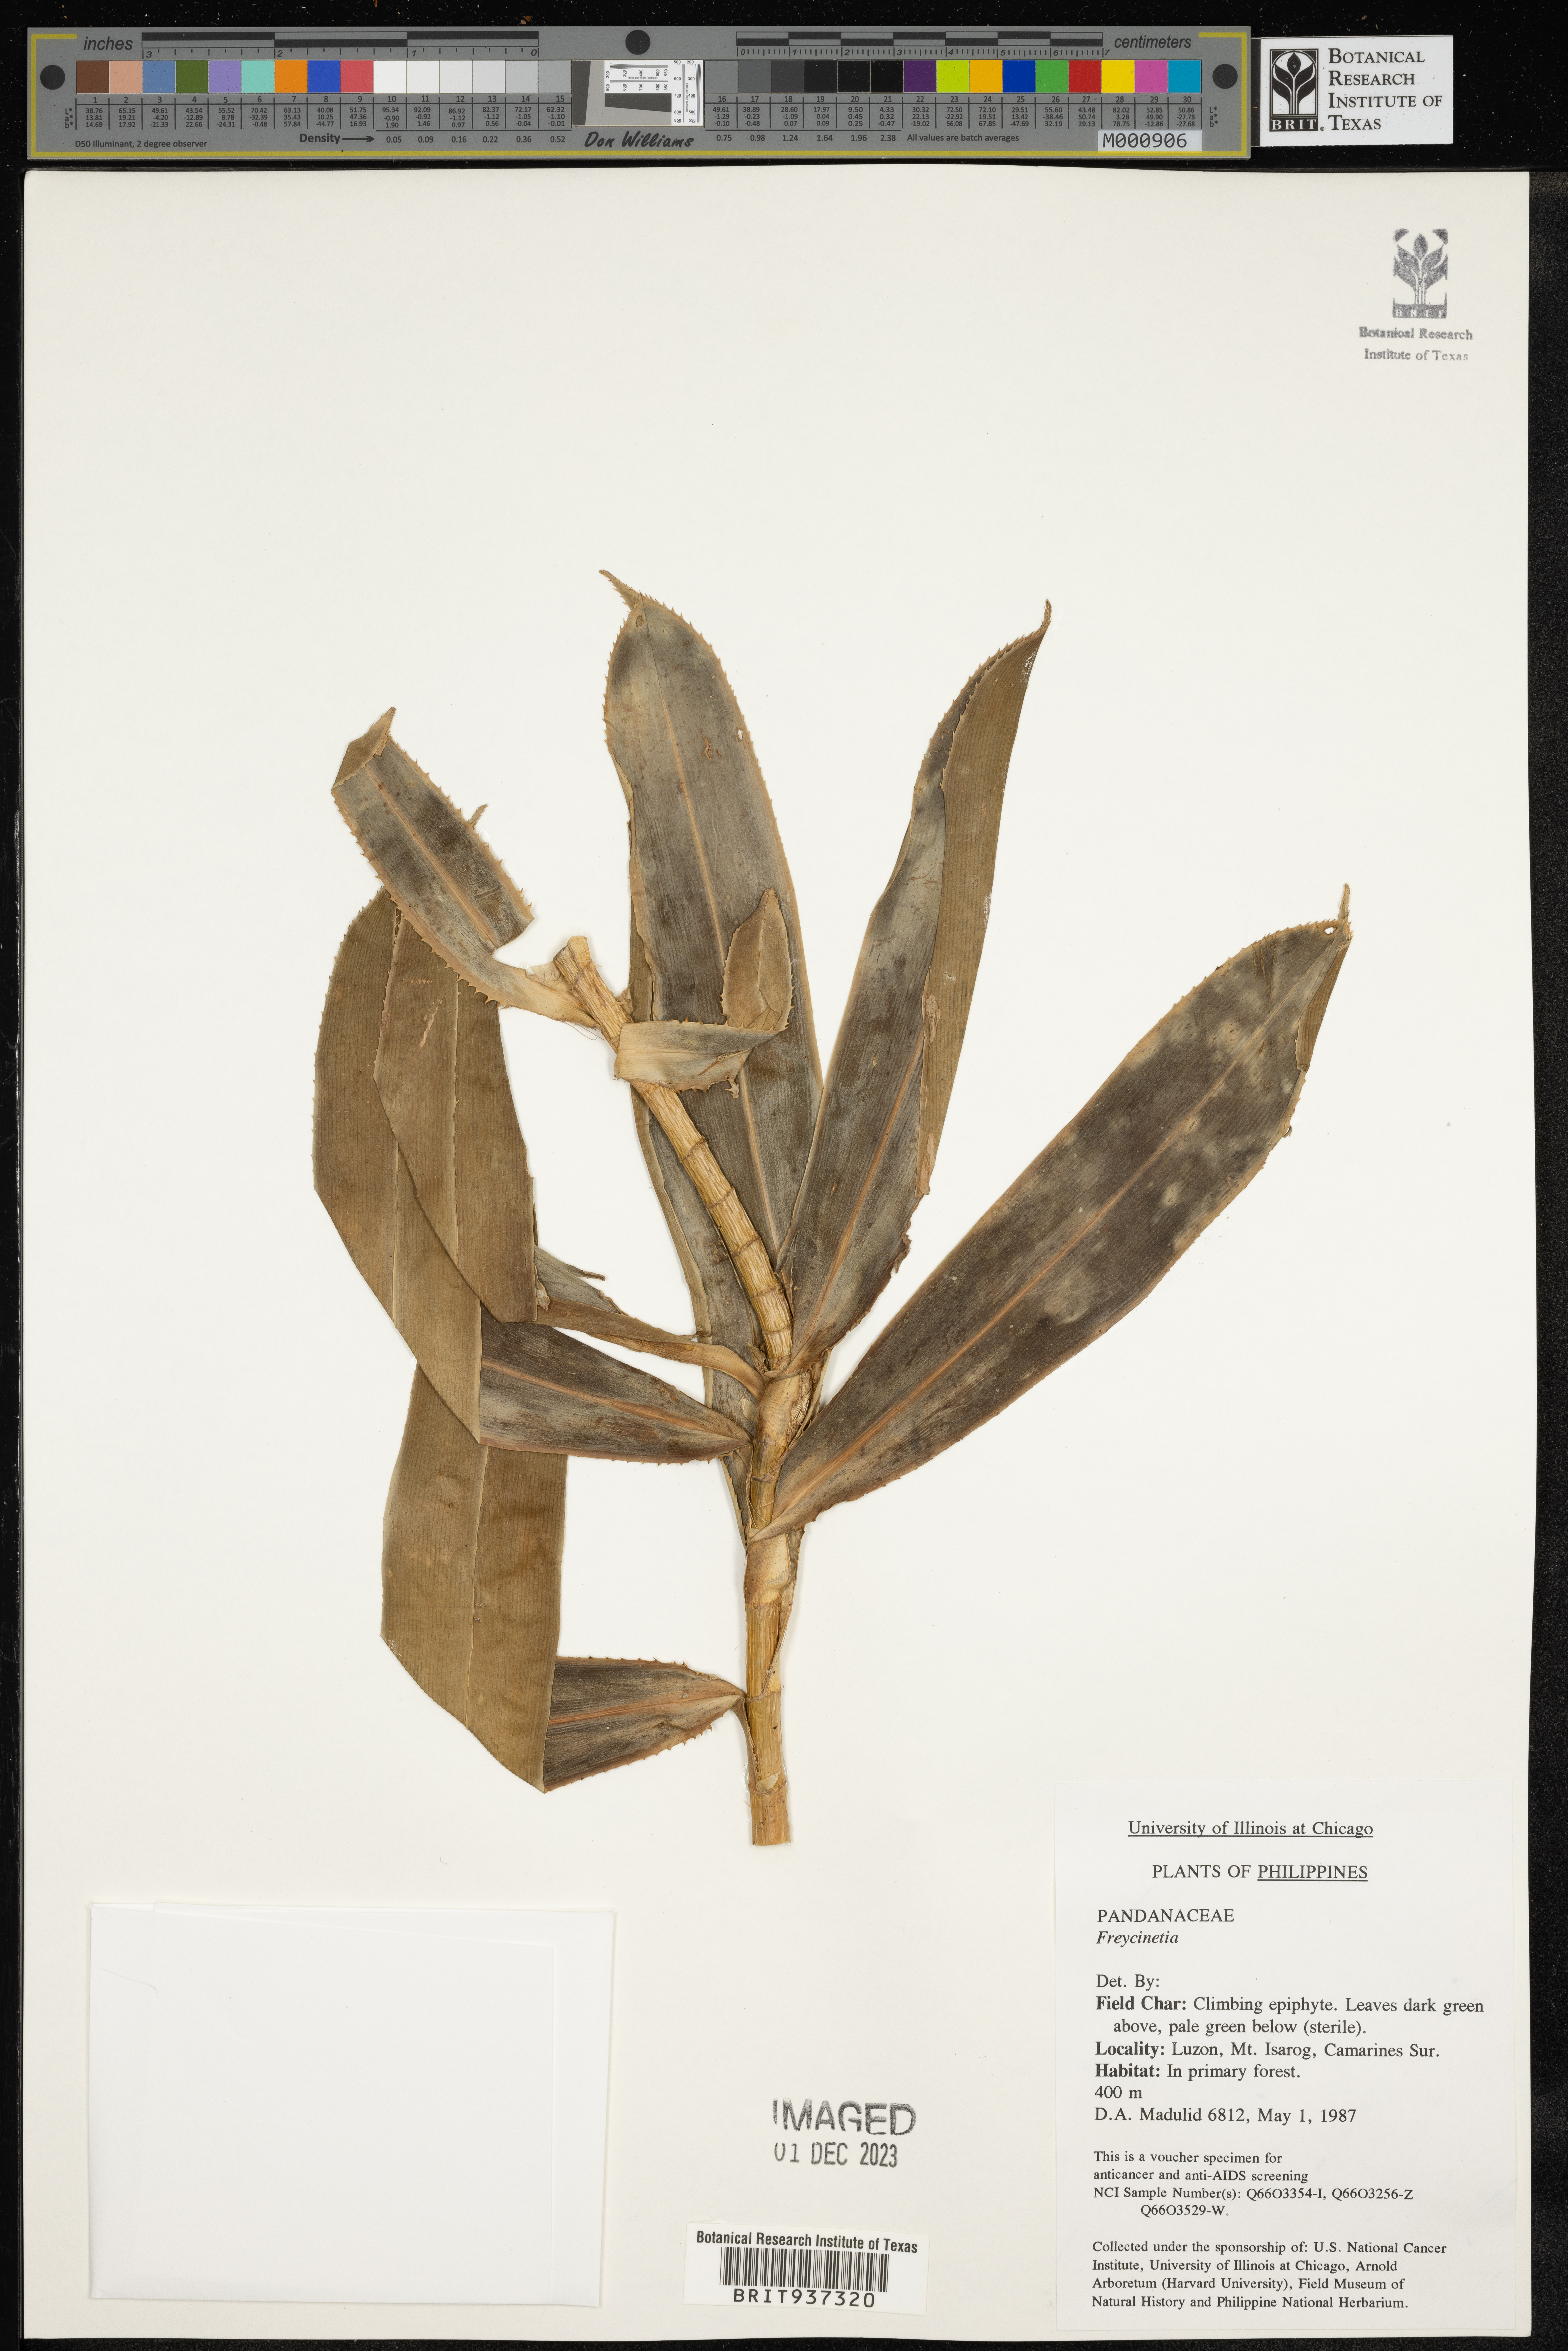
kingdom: Plantae
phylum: Tracheophyta
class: Liliopsida
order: Pandanales
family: Pandanaceae
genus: Freycinetia
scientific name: Freycinetia
